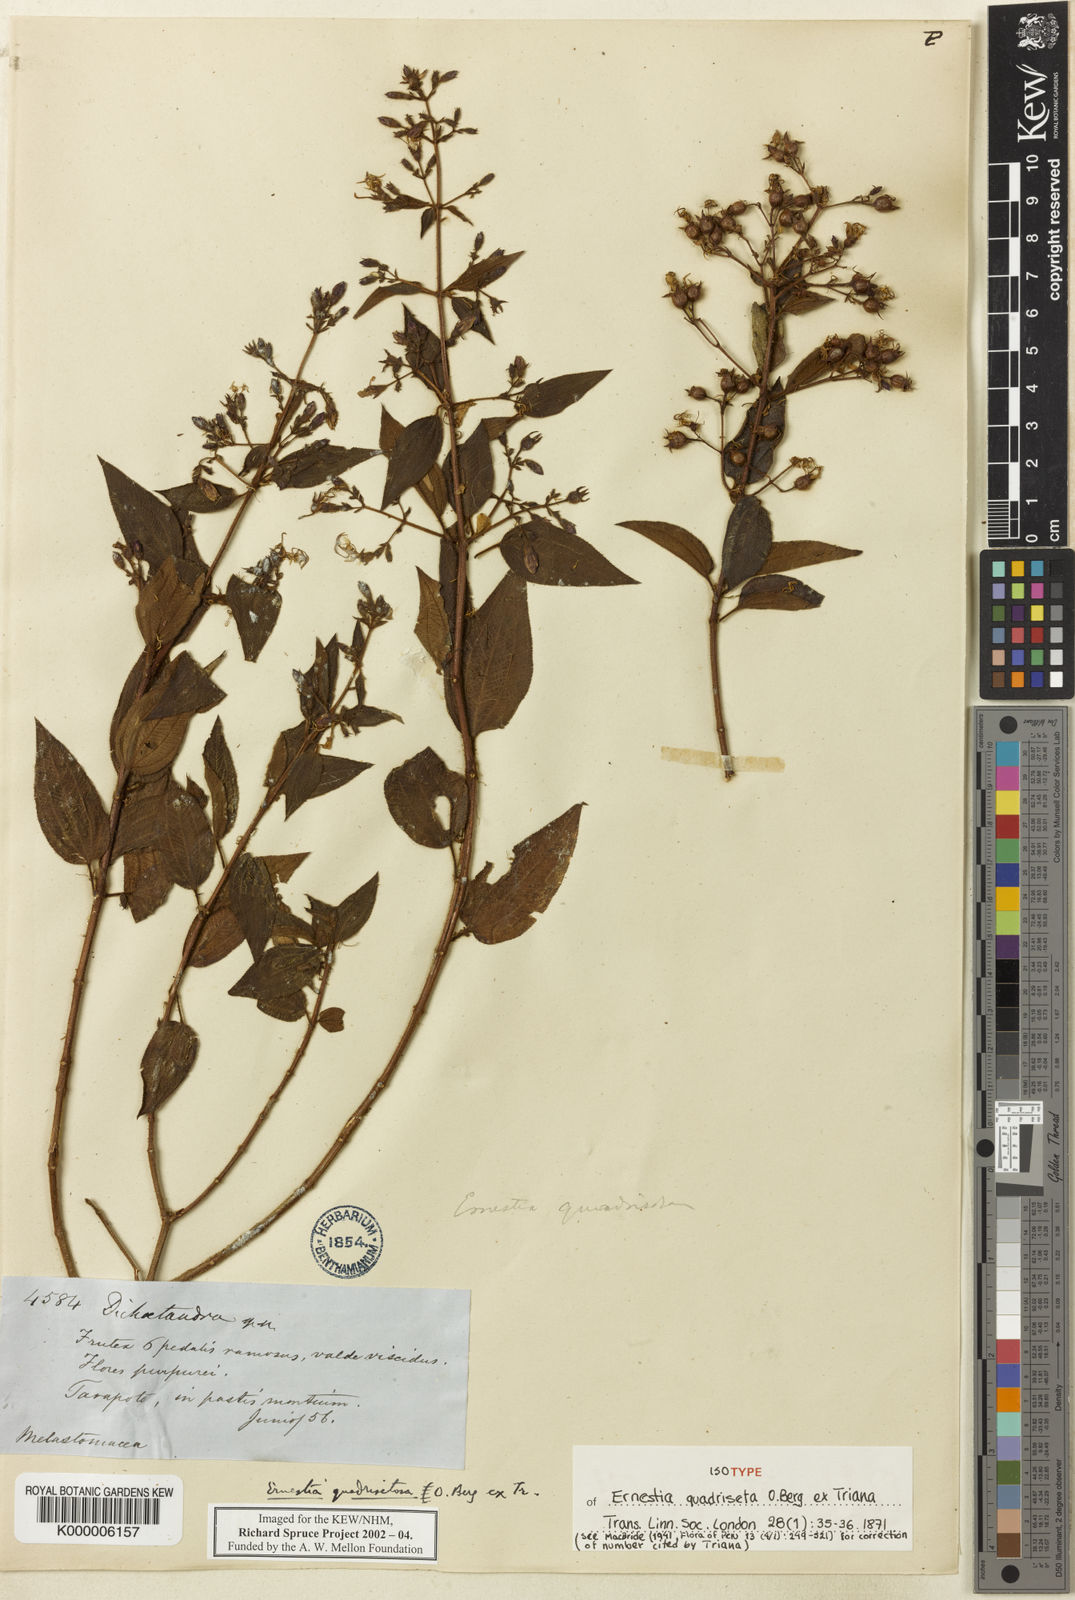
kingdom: Plantae
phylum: Tracheophyta
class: Magnoliopsida
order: Myrtales
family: Melastomataceae
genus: Ernestia
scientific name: Ernestia quadriseta
